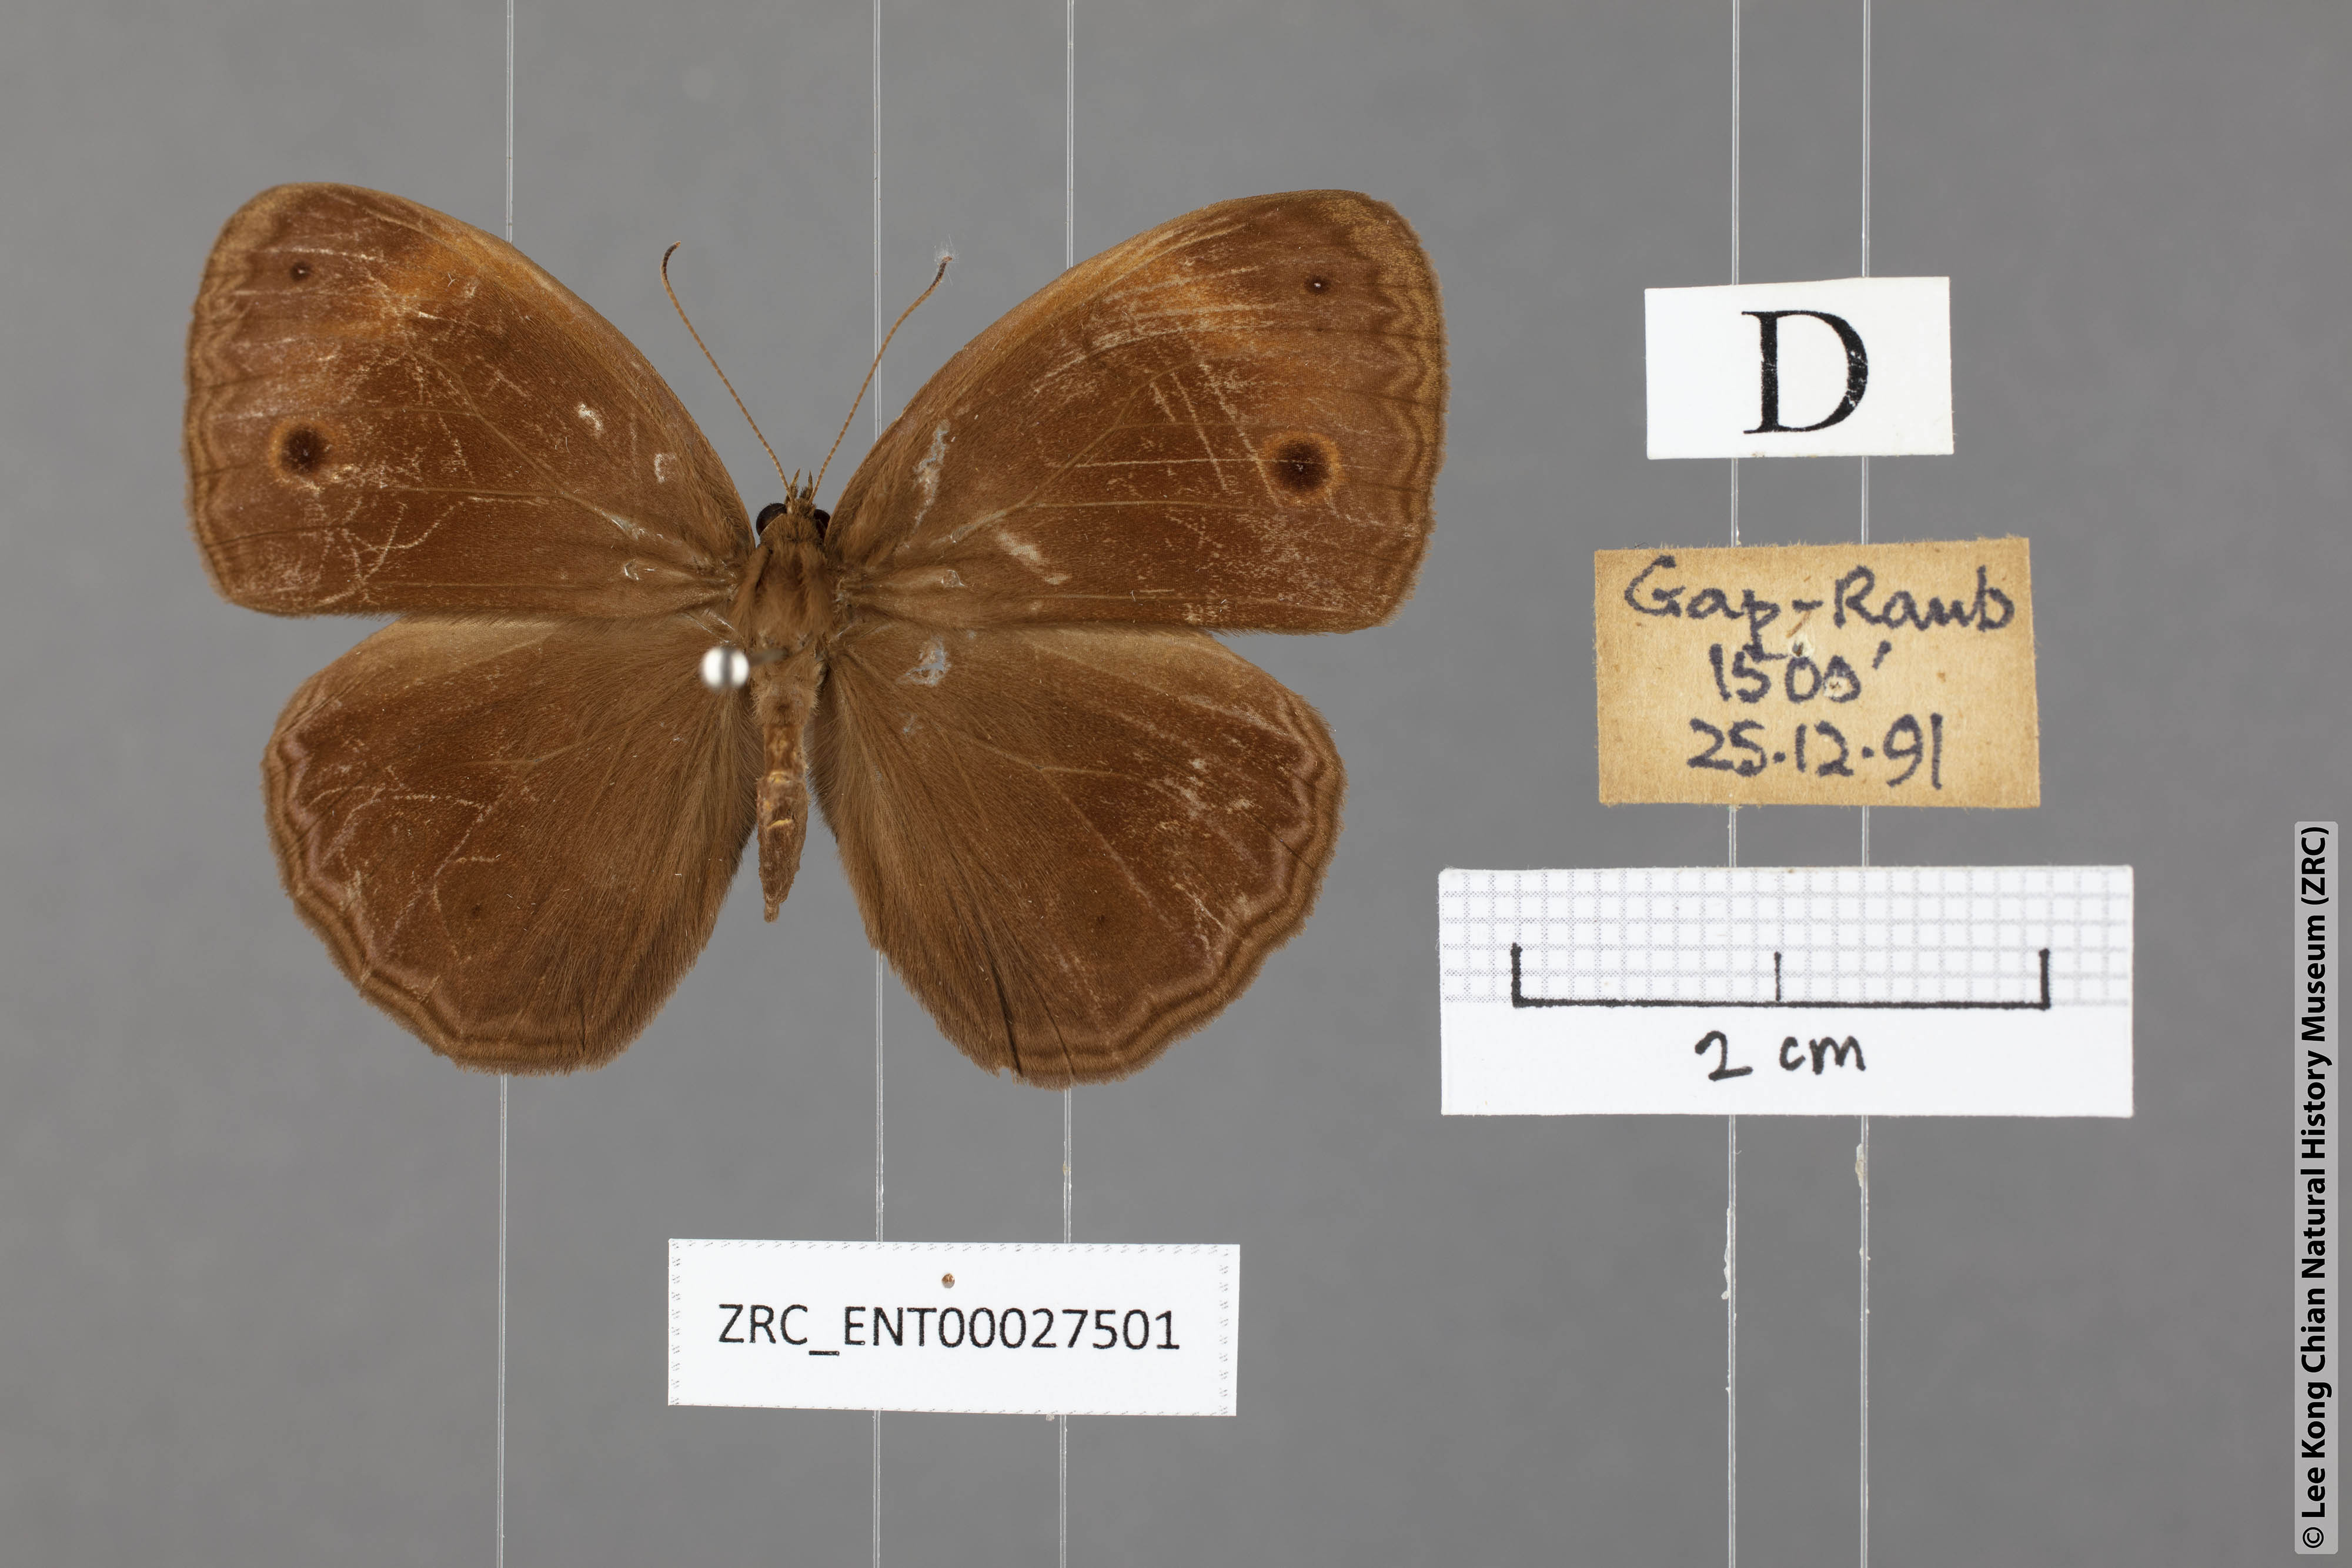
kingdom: Animalia
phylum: Arthropoda
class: Insecta
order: Lepidoptera
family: Nymphalidae
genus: Mycalesis
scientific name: Mycalesis maianeas
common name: Bandless bushbrown
